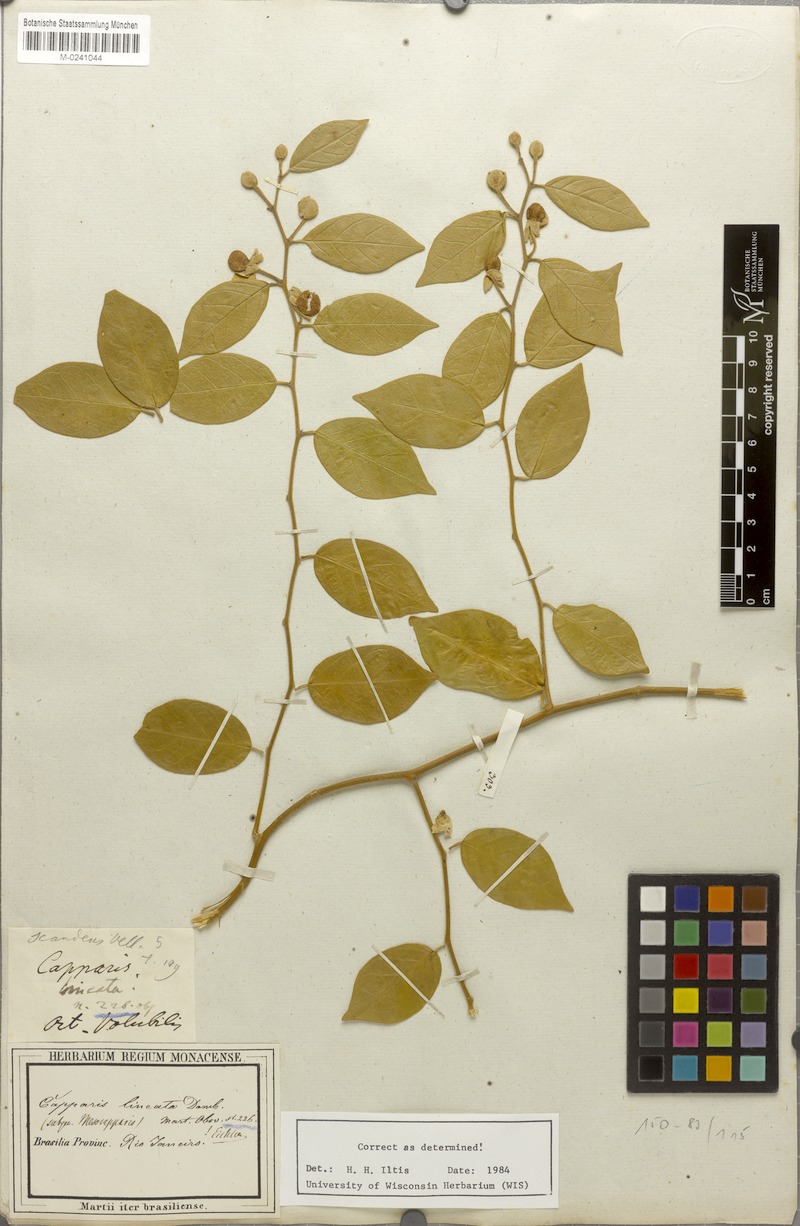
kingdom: Plantae
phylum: Tracheophyta
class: Magnoliopsida
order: Brassicales
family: Capparaceae
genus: Mesocapparis
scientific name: Mesocapparis lineata
